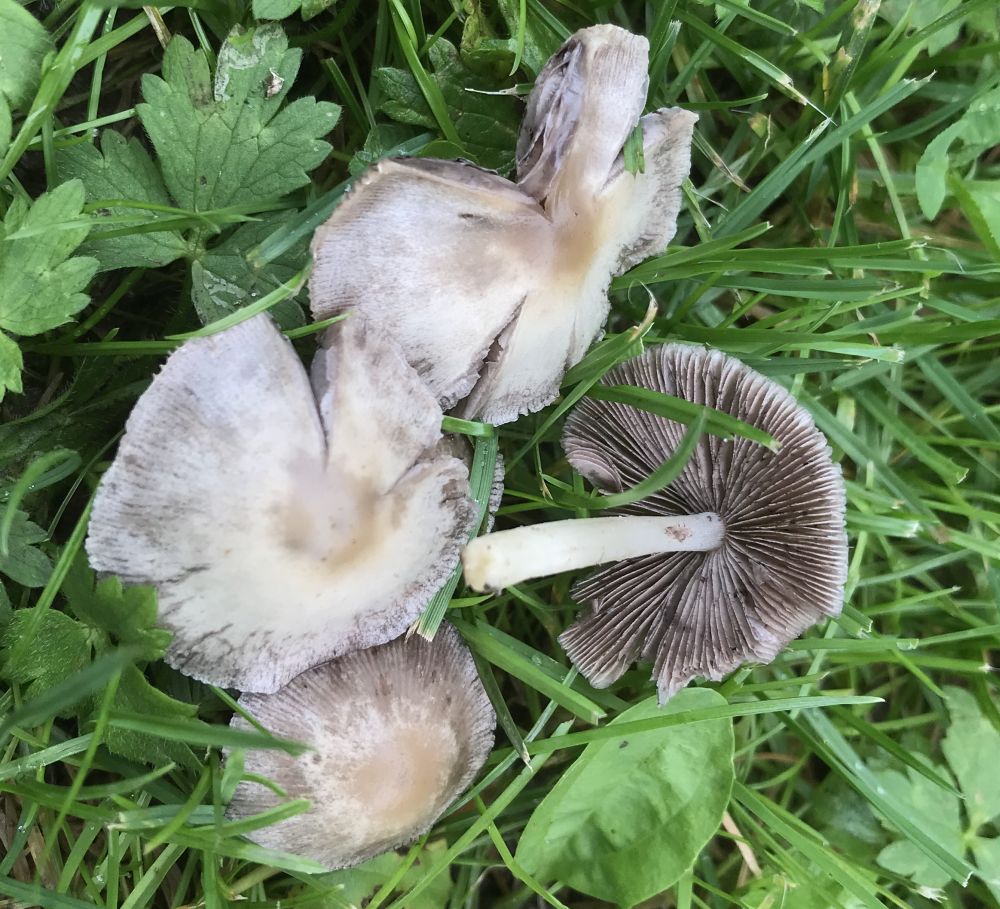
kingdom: Fungi
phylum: Basidiomycota
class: Agaricomycetes
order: Agaricales
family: Psathyrellaceae
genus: Psathyrella
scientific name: Psathyrella
